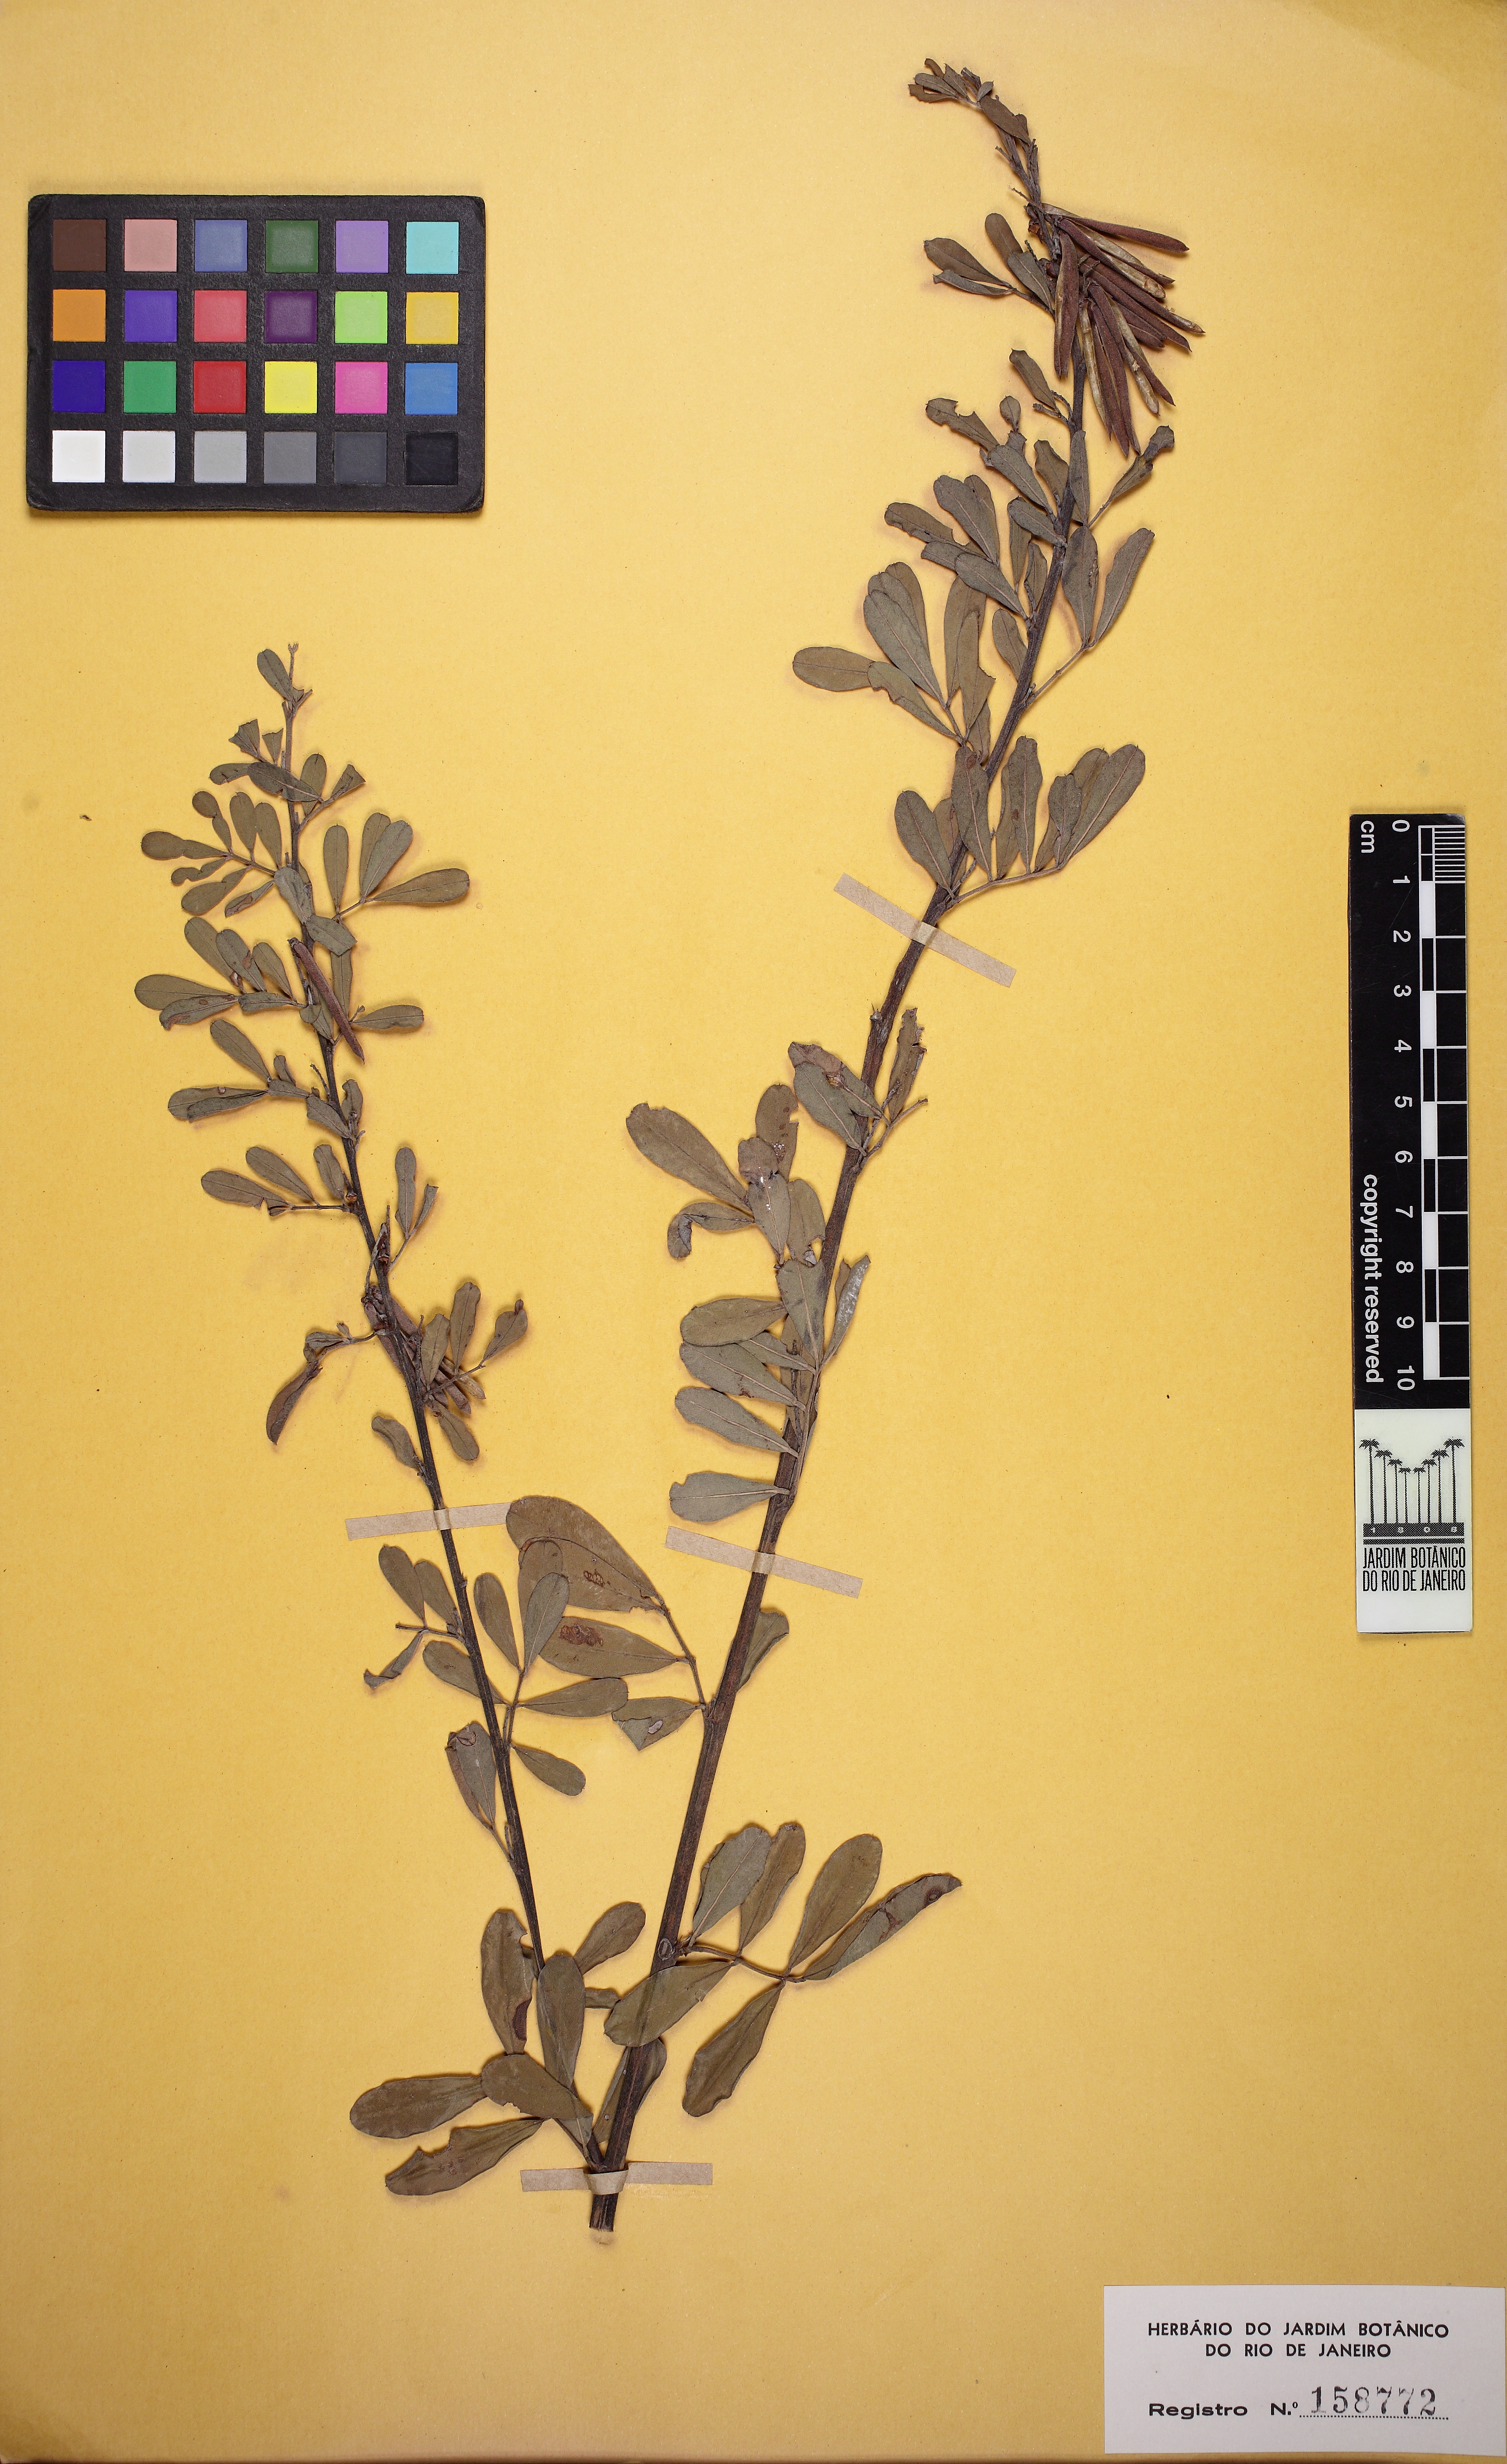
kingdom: Plantae
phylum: Tracheophyta
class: Magnoliopsida
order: Fabales
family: Fabaceae
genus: Indigofera
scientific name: Indigofera lespedezioides
